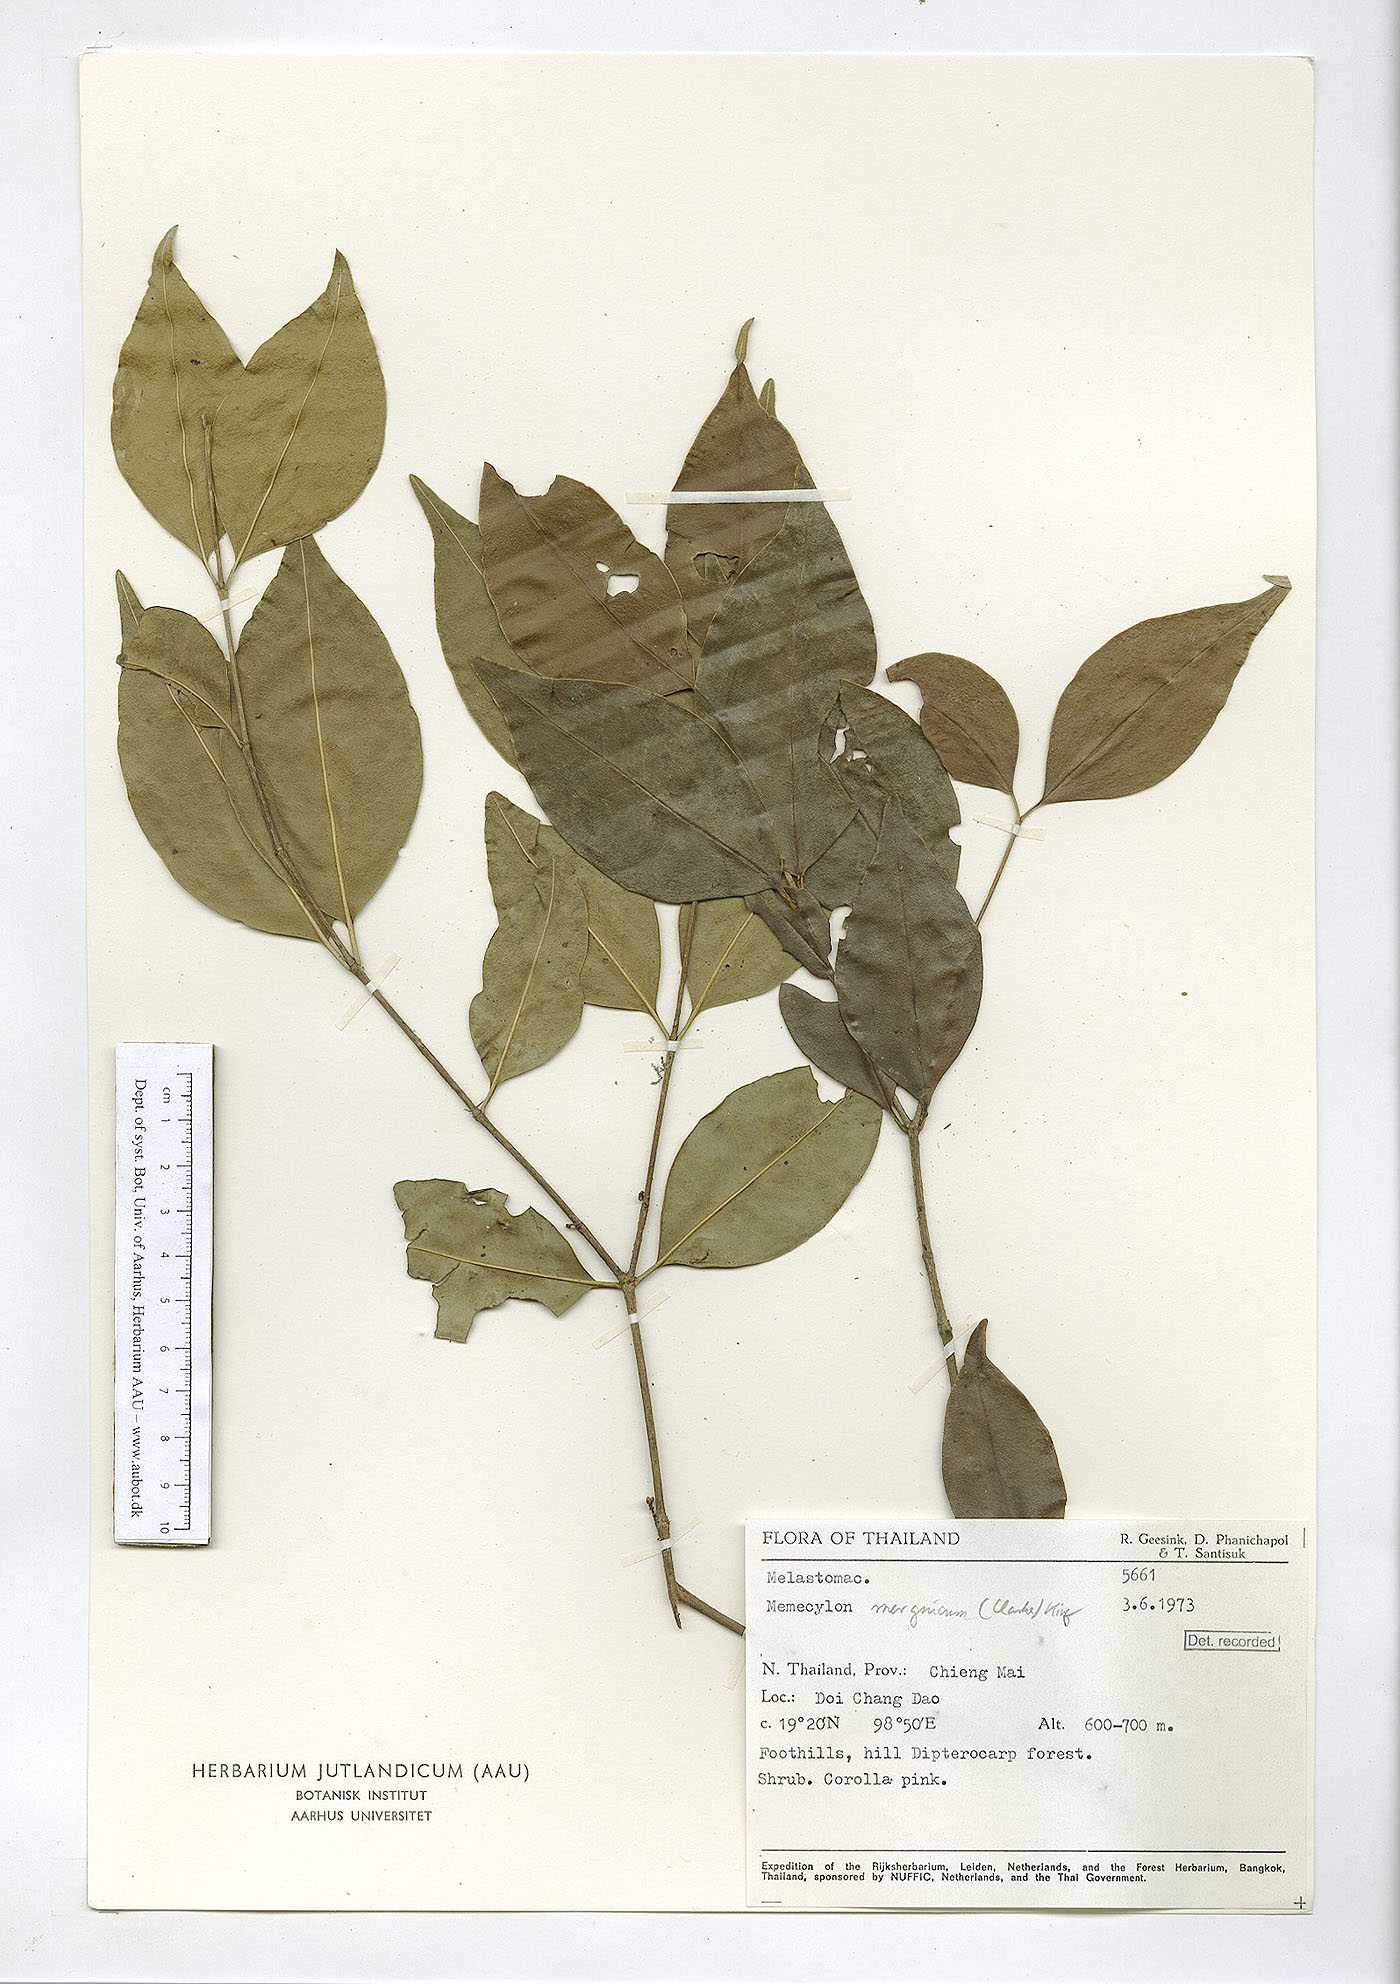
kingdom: Plantae
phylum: Tracheophyta
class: Magnoliopsida
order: Myrtales
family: Melastomataceae
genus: Memecylon
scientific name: Memecylon plebejum
